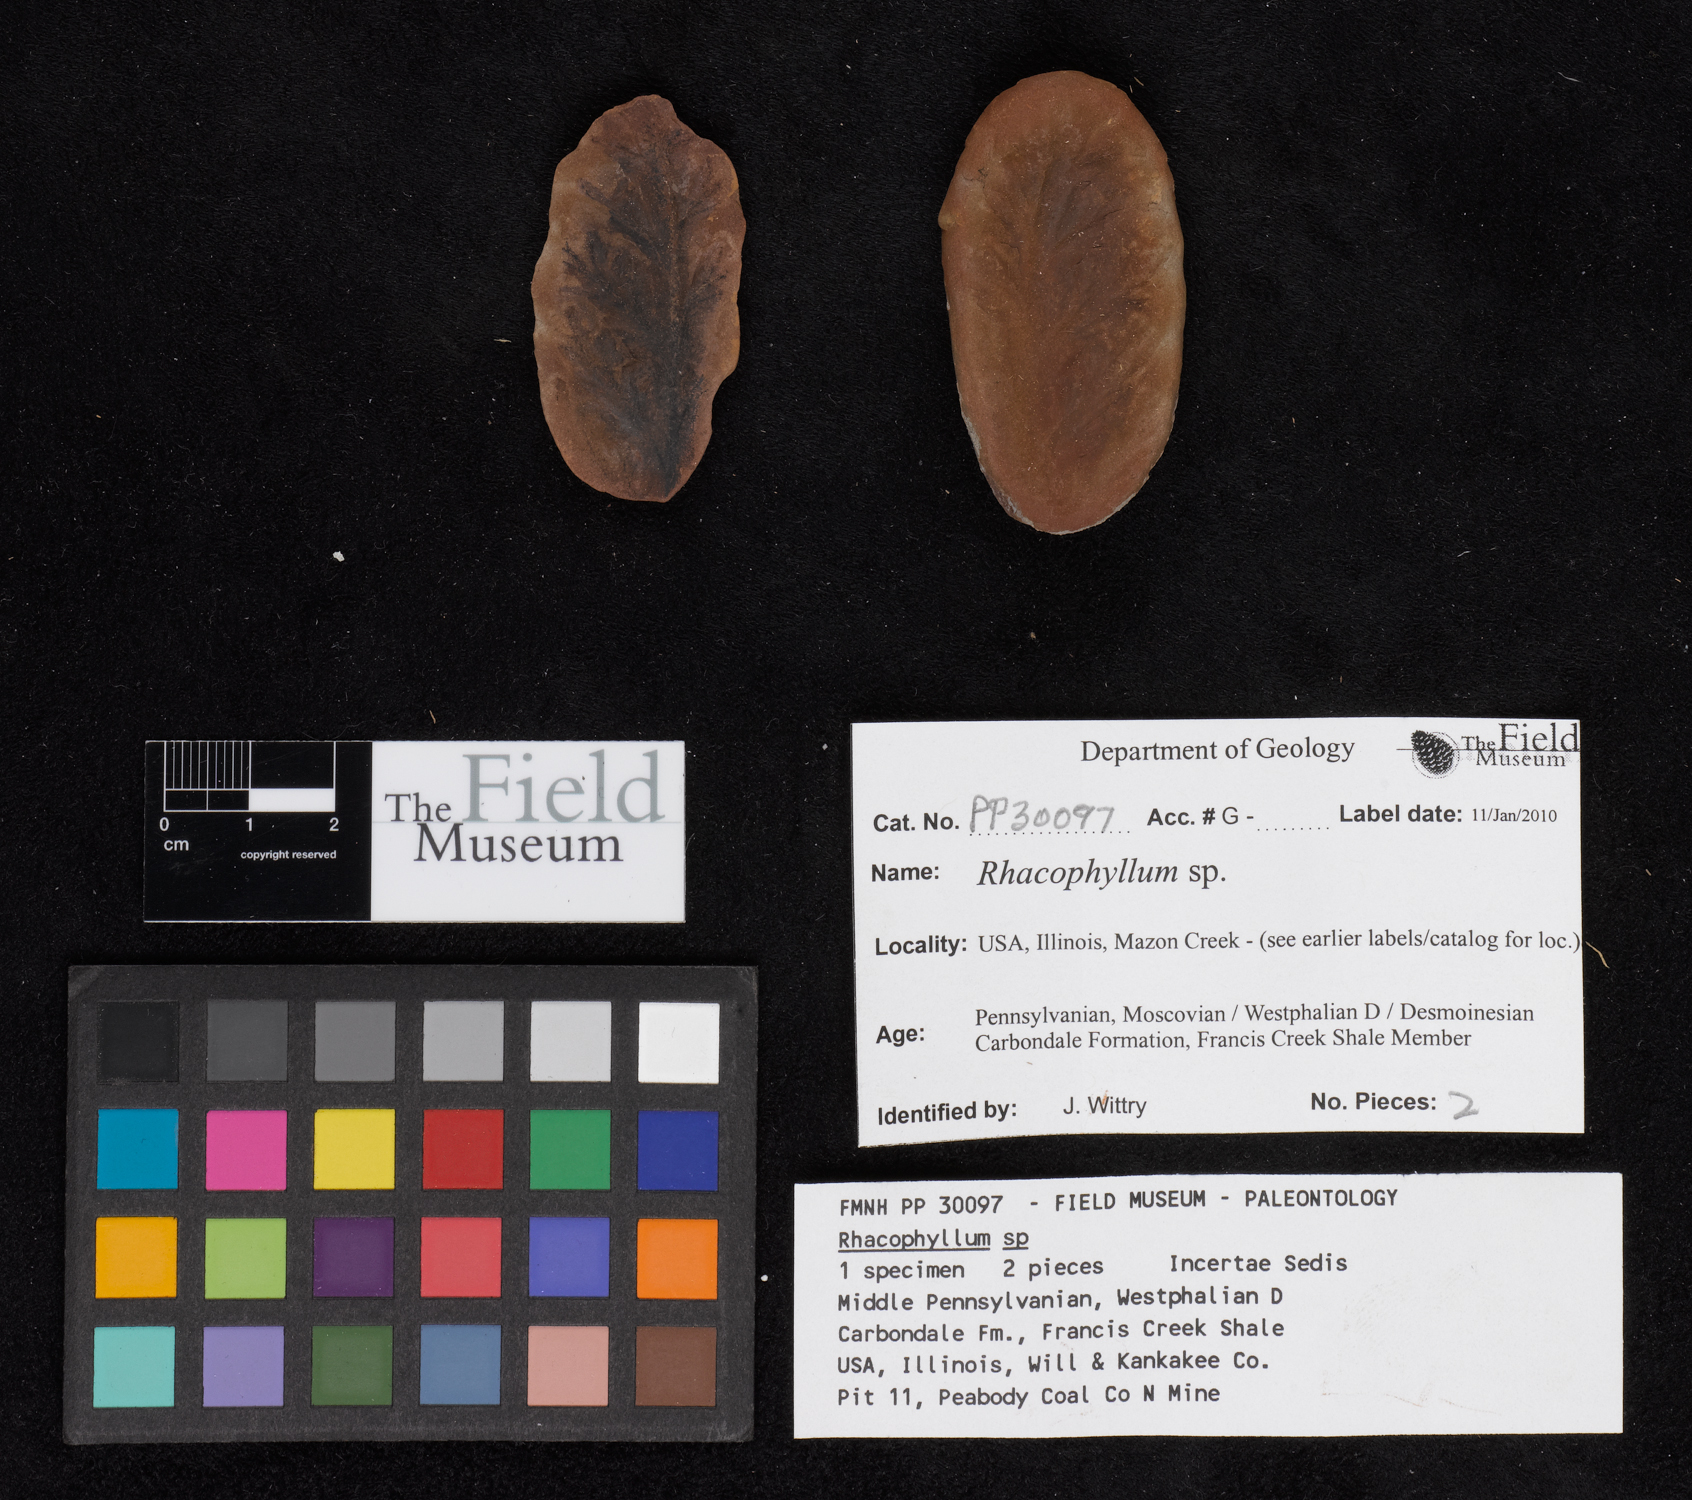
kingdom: Plantae
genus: Rhacophyllum
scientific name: Rhacophyllum
